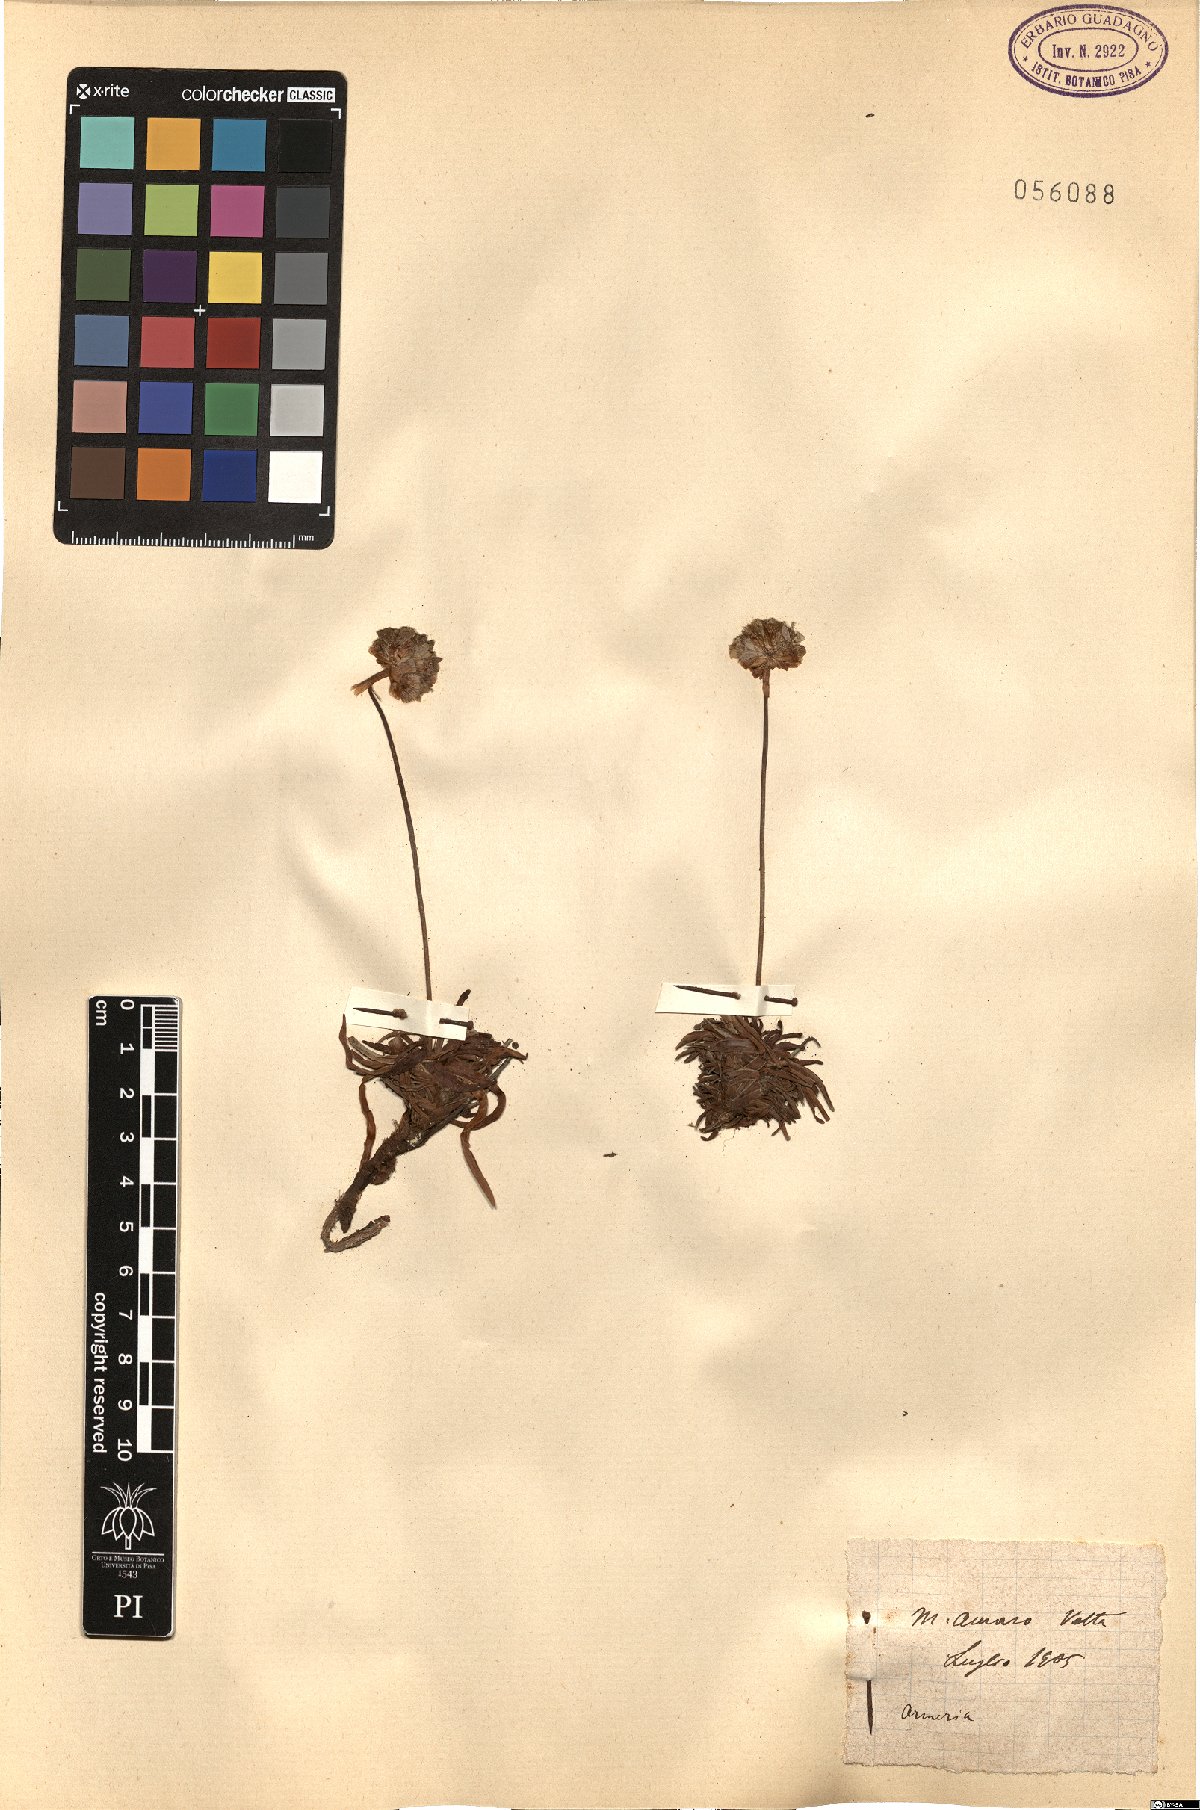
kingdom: Plantae
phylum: Tracheophyta
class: Magnoliopsida
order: Caryophyllales
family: Plumbaginaceae
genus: Armeria
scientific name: Armeria
